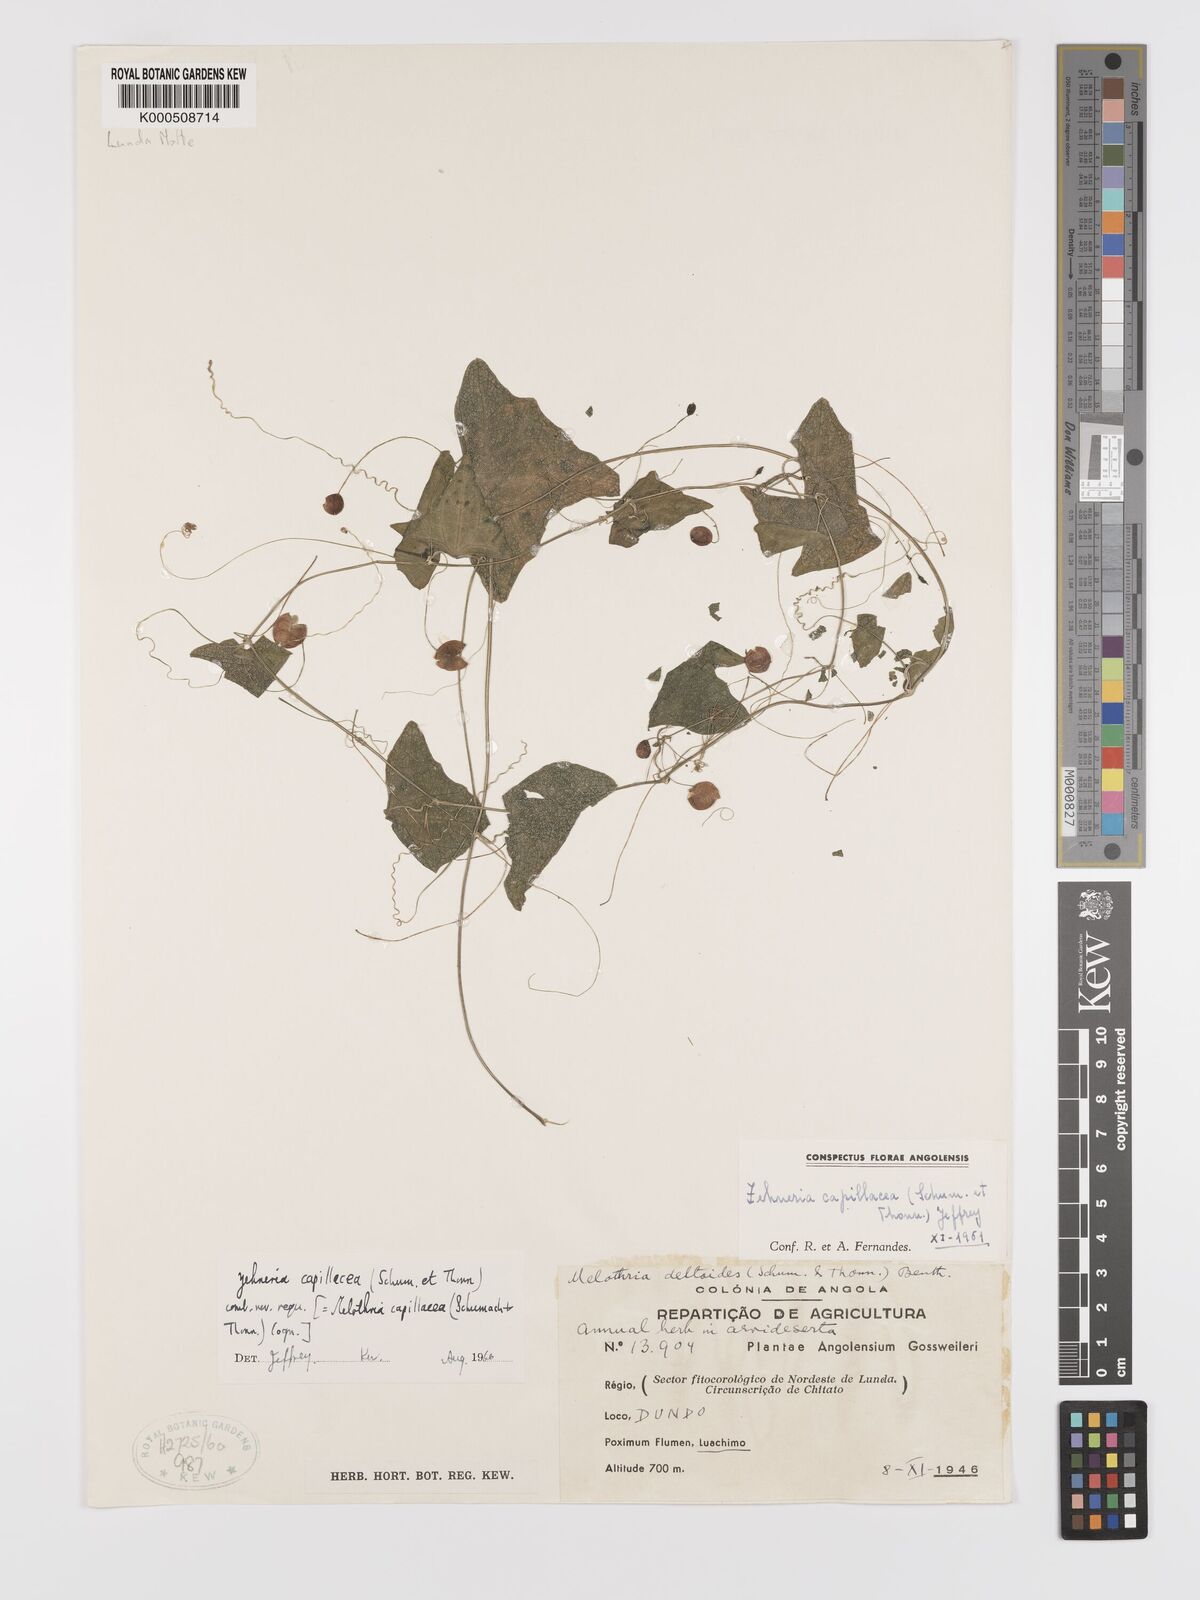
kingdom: Plantae
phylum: Tracheophyta
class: Magnoliopsida
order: Cucurbitales
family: Cucurbitaceae
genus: Zehneria
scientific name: Zehneria capillacea
